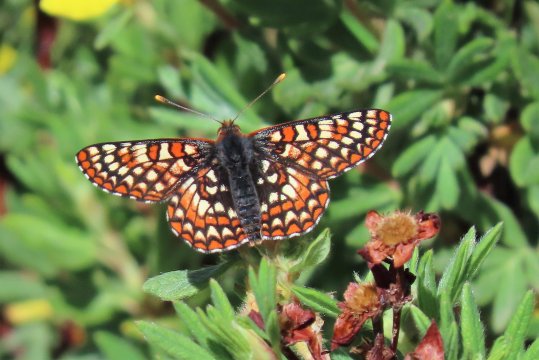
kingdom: Animalia
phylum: Arthropoda
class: Insecta
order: Lepidoptera
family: Nymphalidae
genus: Occidryas
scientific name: Occidryas anicia
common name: Anicia Checkerspot
